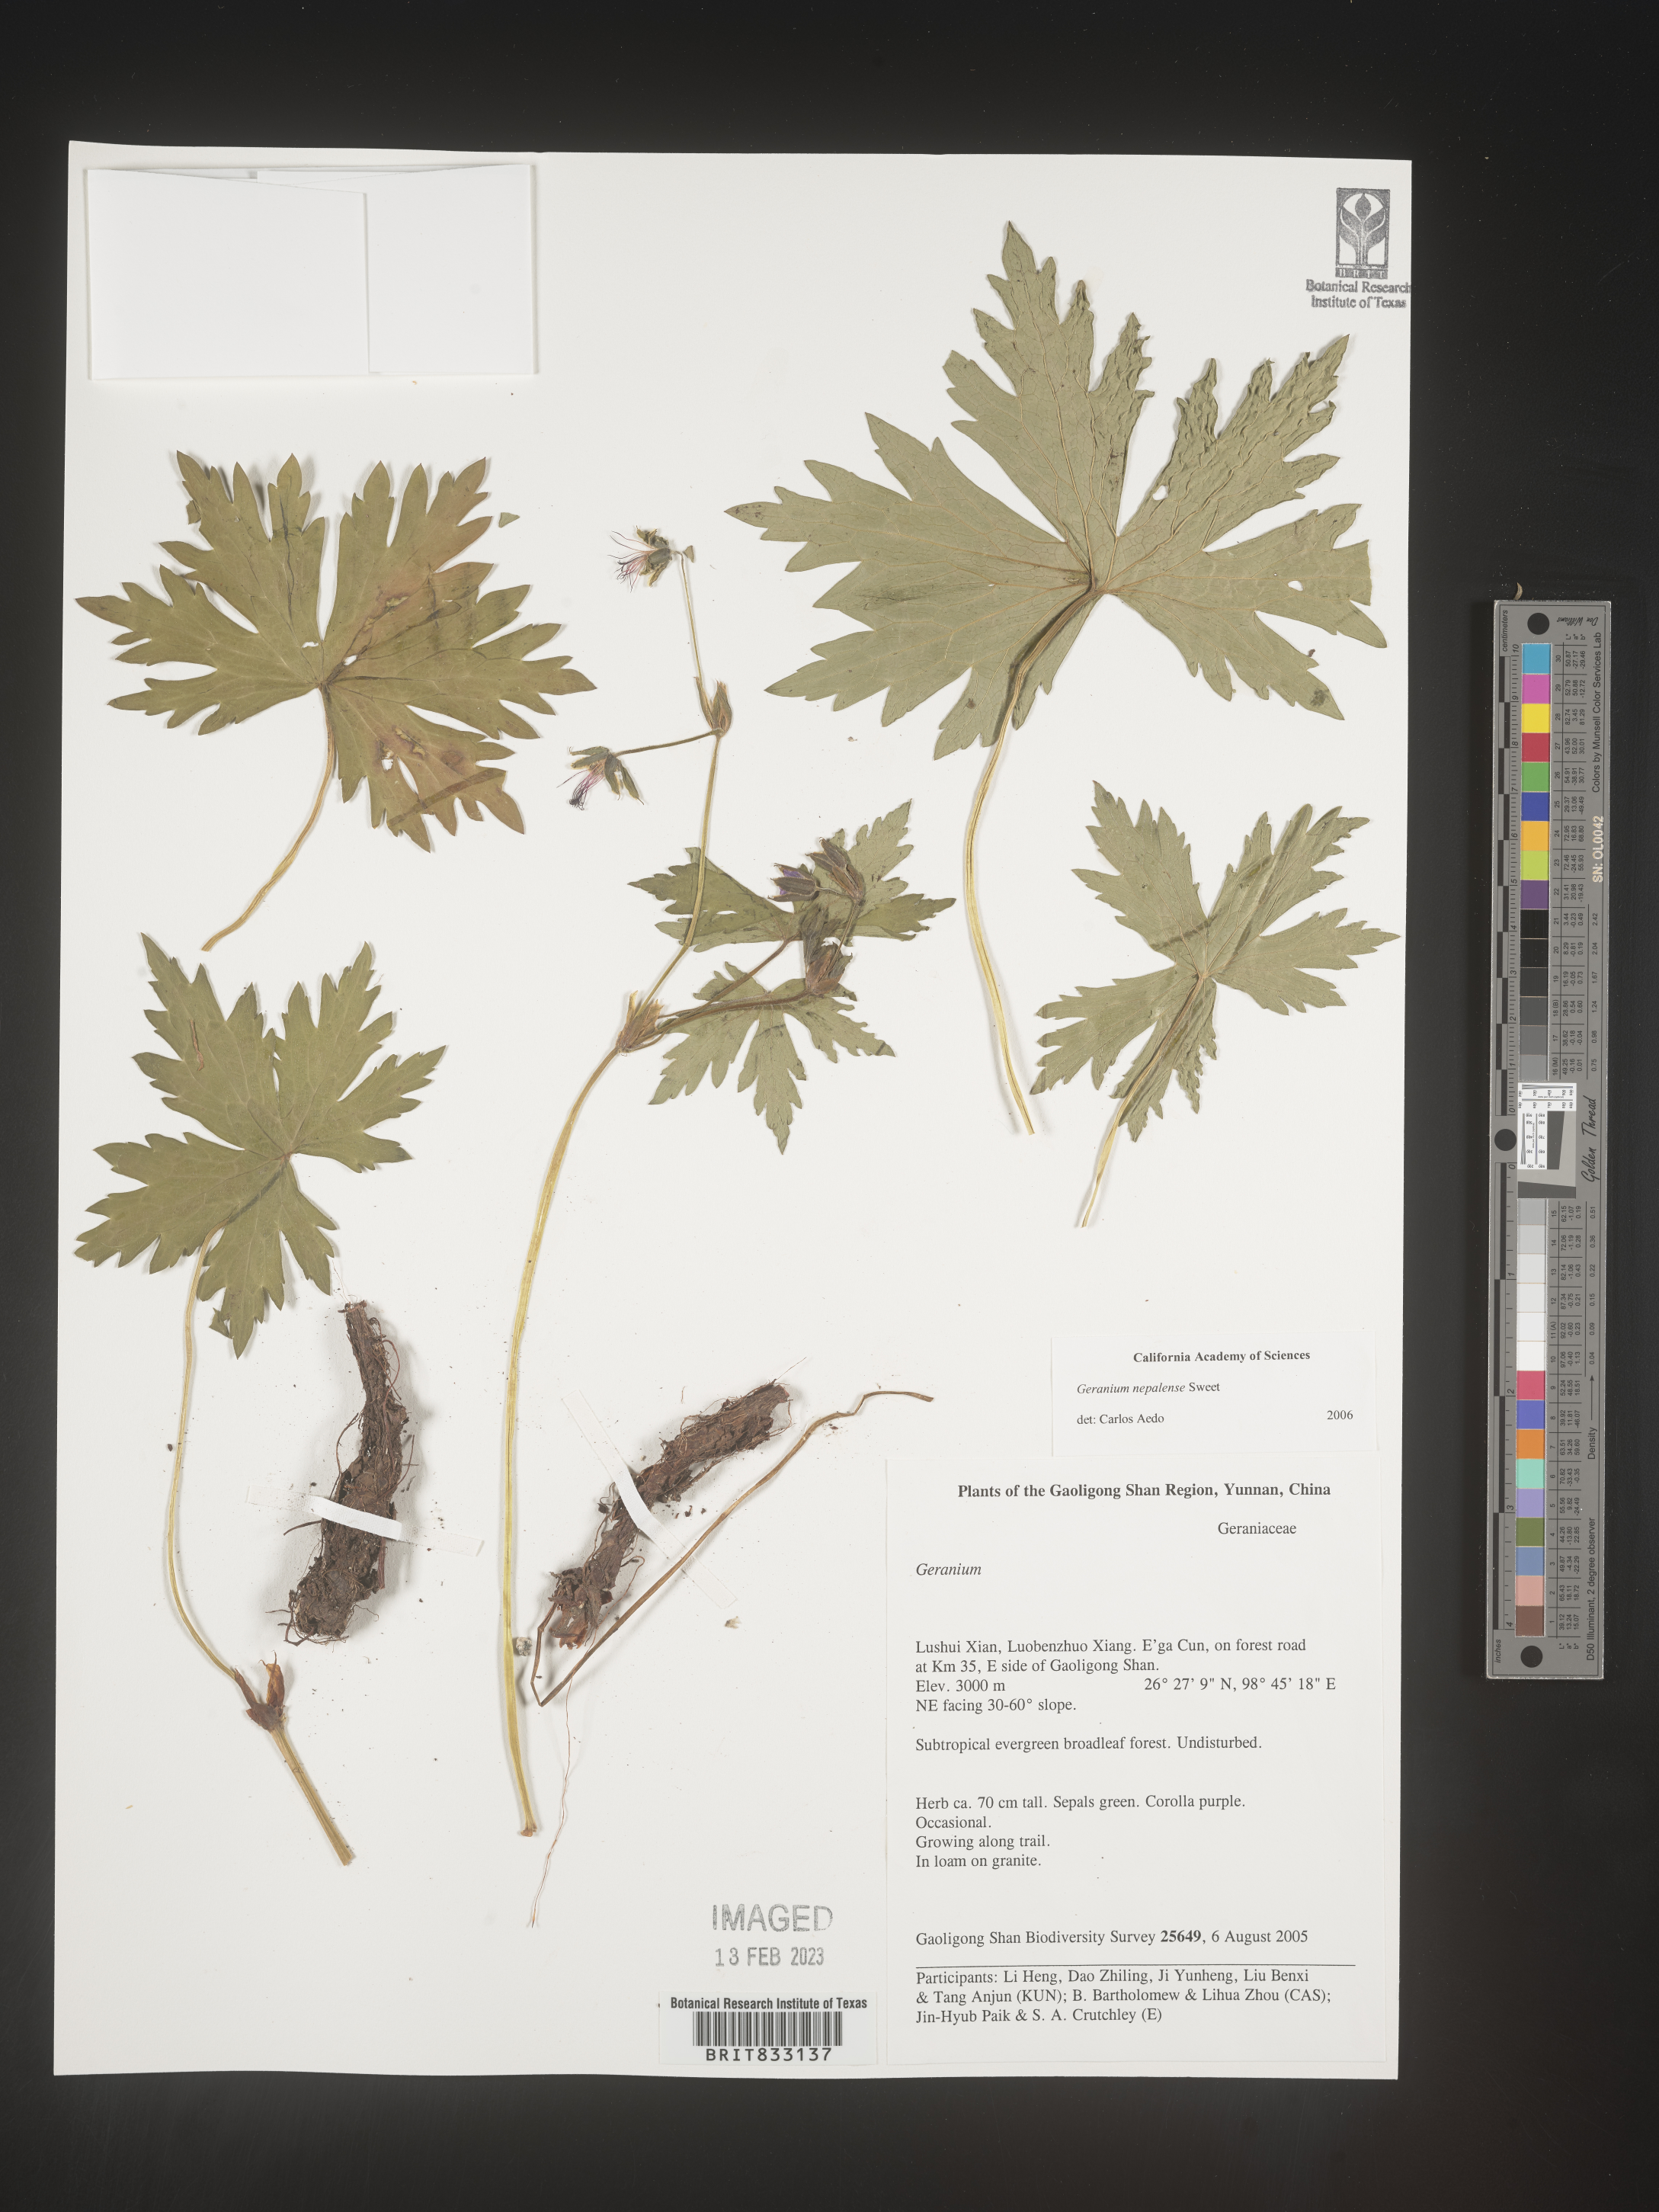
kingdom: Plantae
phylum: Tracheophyta
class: Magnoliopsida
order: Geraniales
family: Geraniaceae
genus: Geranium
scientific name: Geranium nepalense
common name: Nepalese crane's-bill
